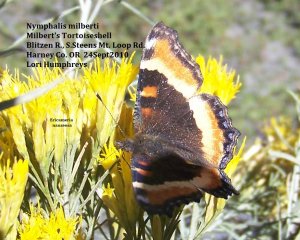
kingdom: Animalia
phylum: Arthropoda
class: Insecta
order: Lepidoptera
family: Nymphalidae
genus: Aglais
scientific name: Aglais milberti
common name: Milbert's Tortoiseshell
